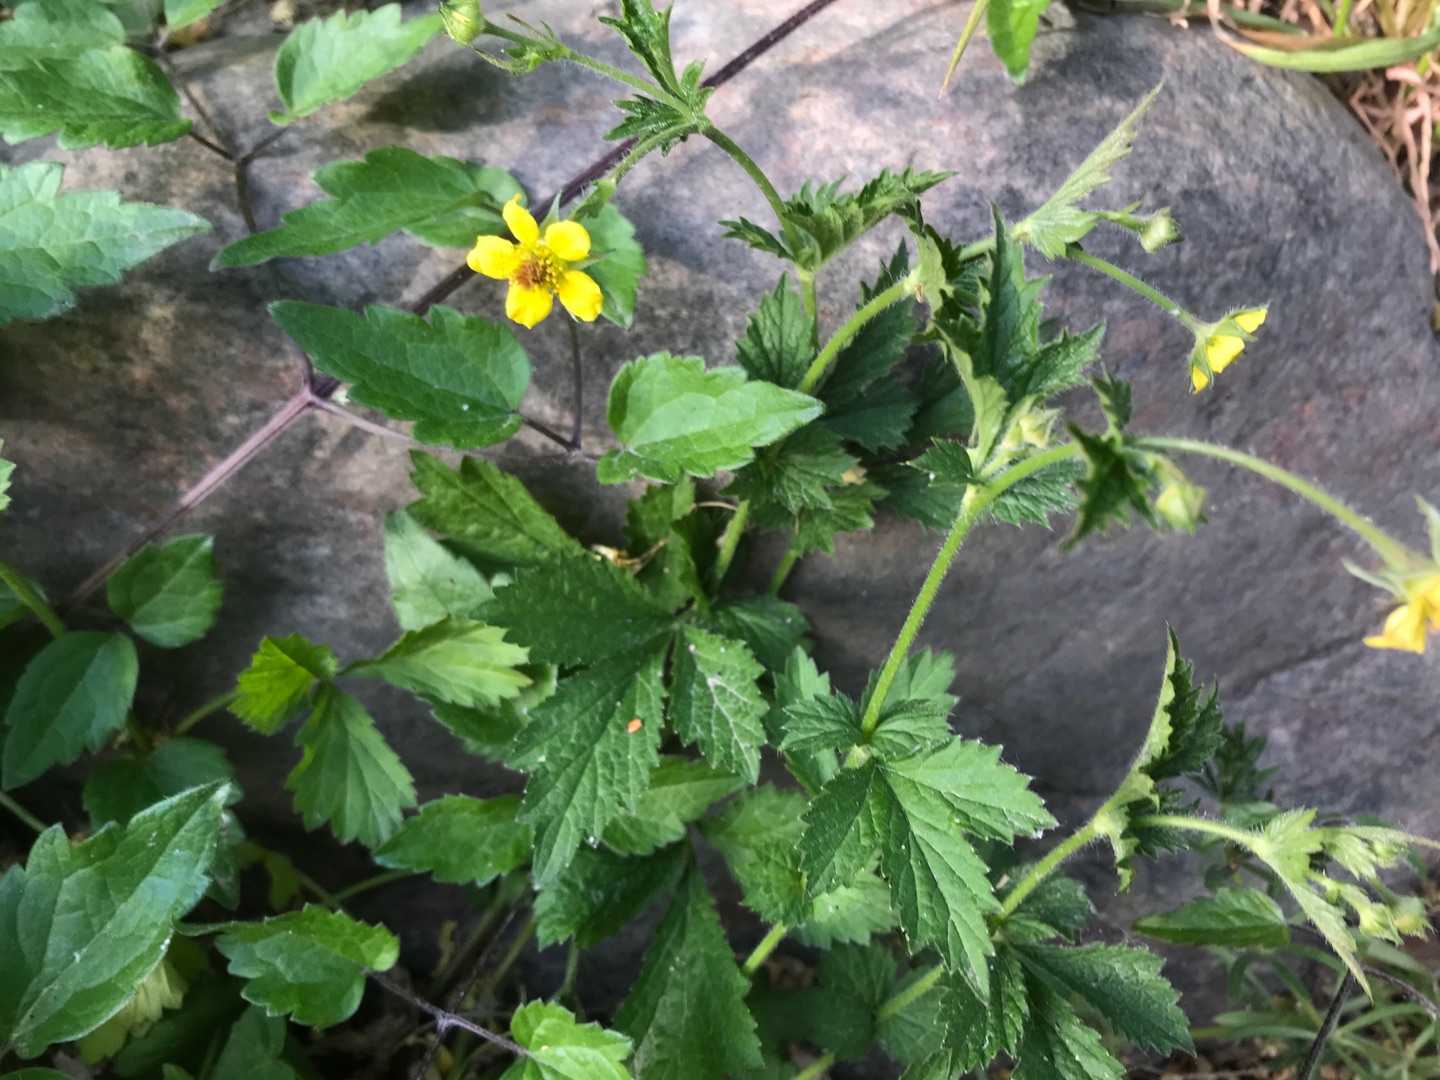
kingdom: Plantae
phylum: Tracheophyta
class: Magnoliopsida
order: Rosales
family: Rosaceae
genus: Geum
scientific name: Geum urbanum
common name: Feber-nellikerod
